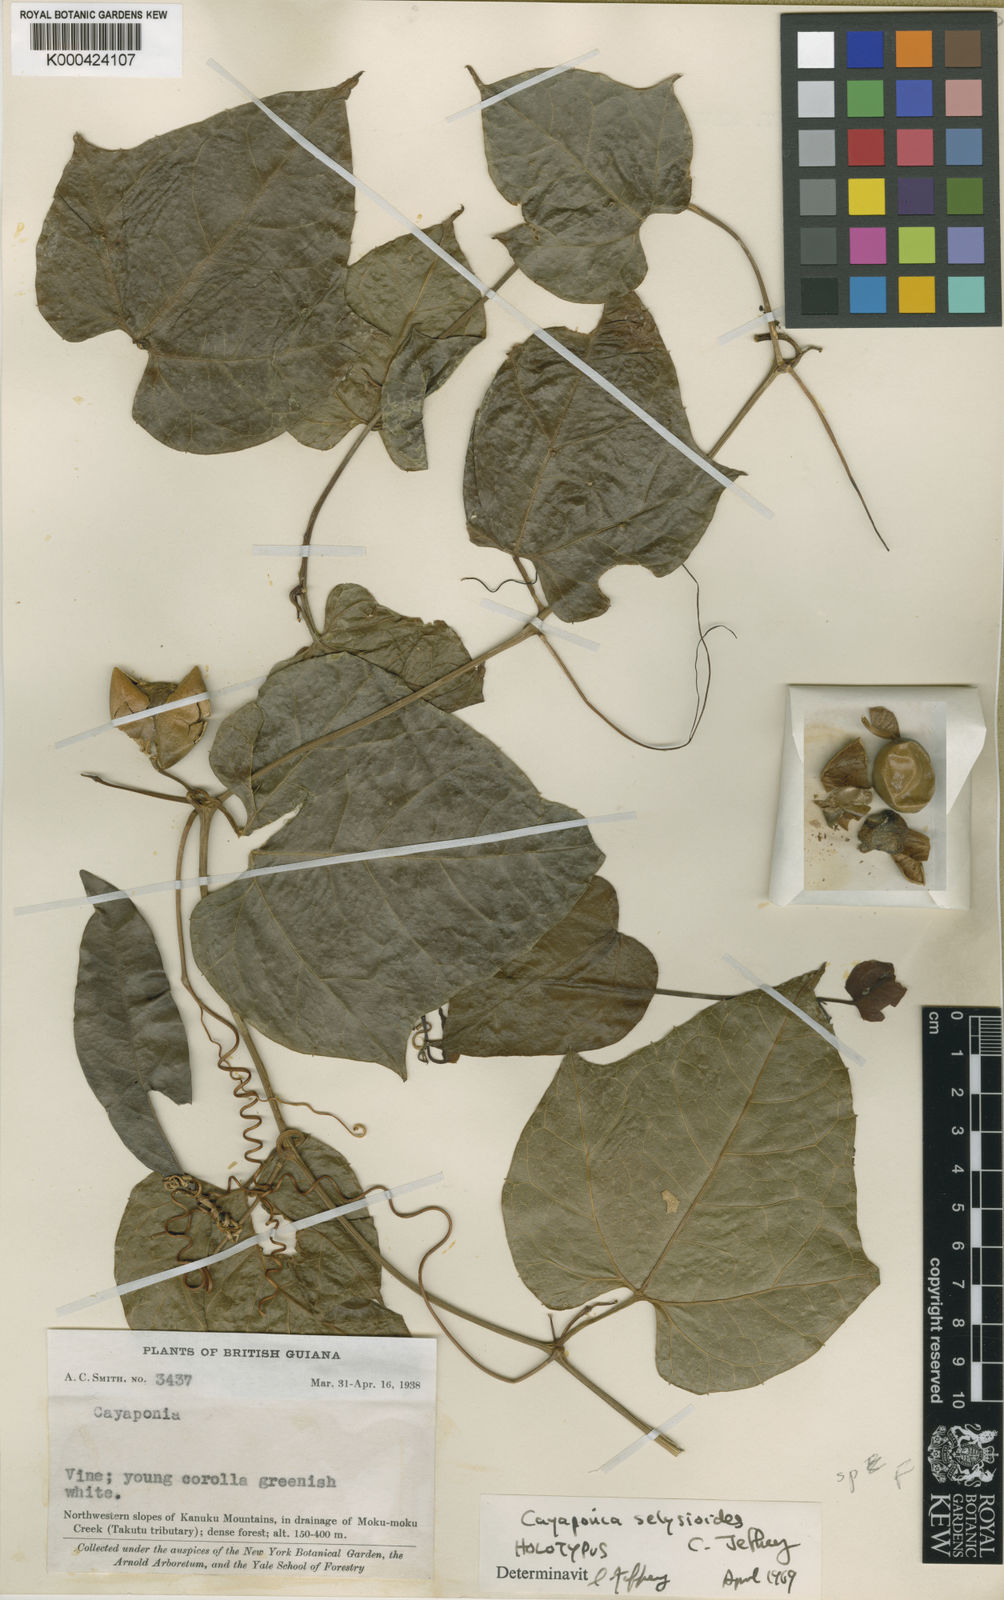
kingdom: Plantae
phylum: Tracheophyta
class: Magnoliopsida
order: Cucurbitales
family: Cucurbitaceae
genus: Cayaponia
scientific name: Cayaponia selysioides
